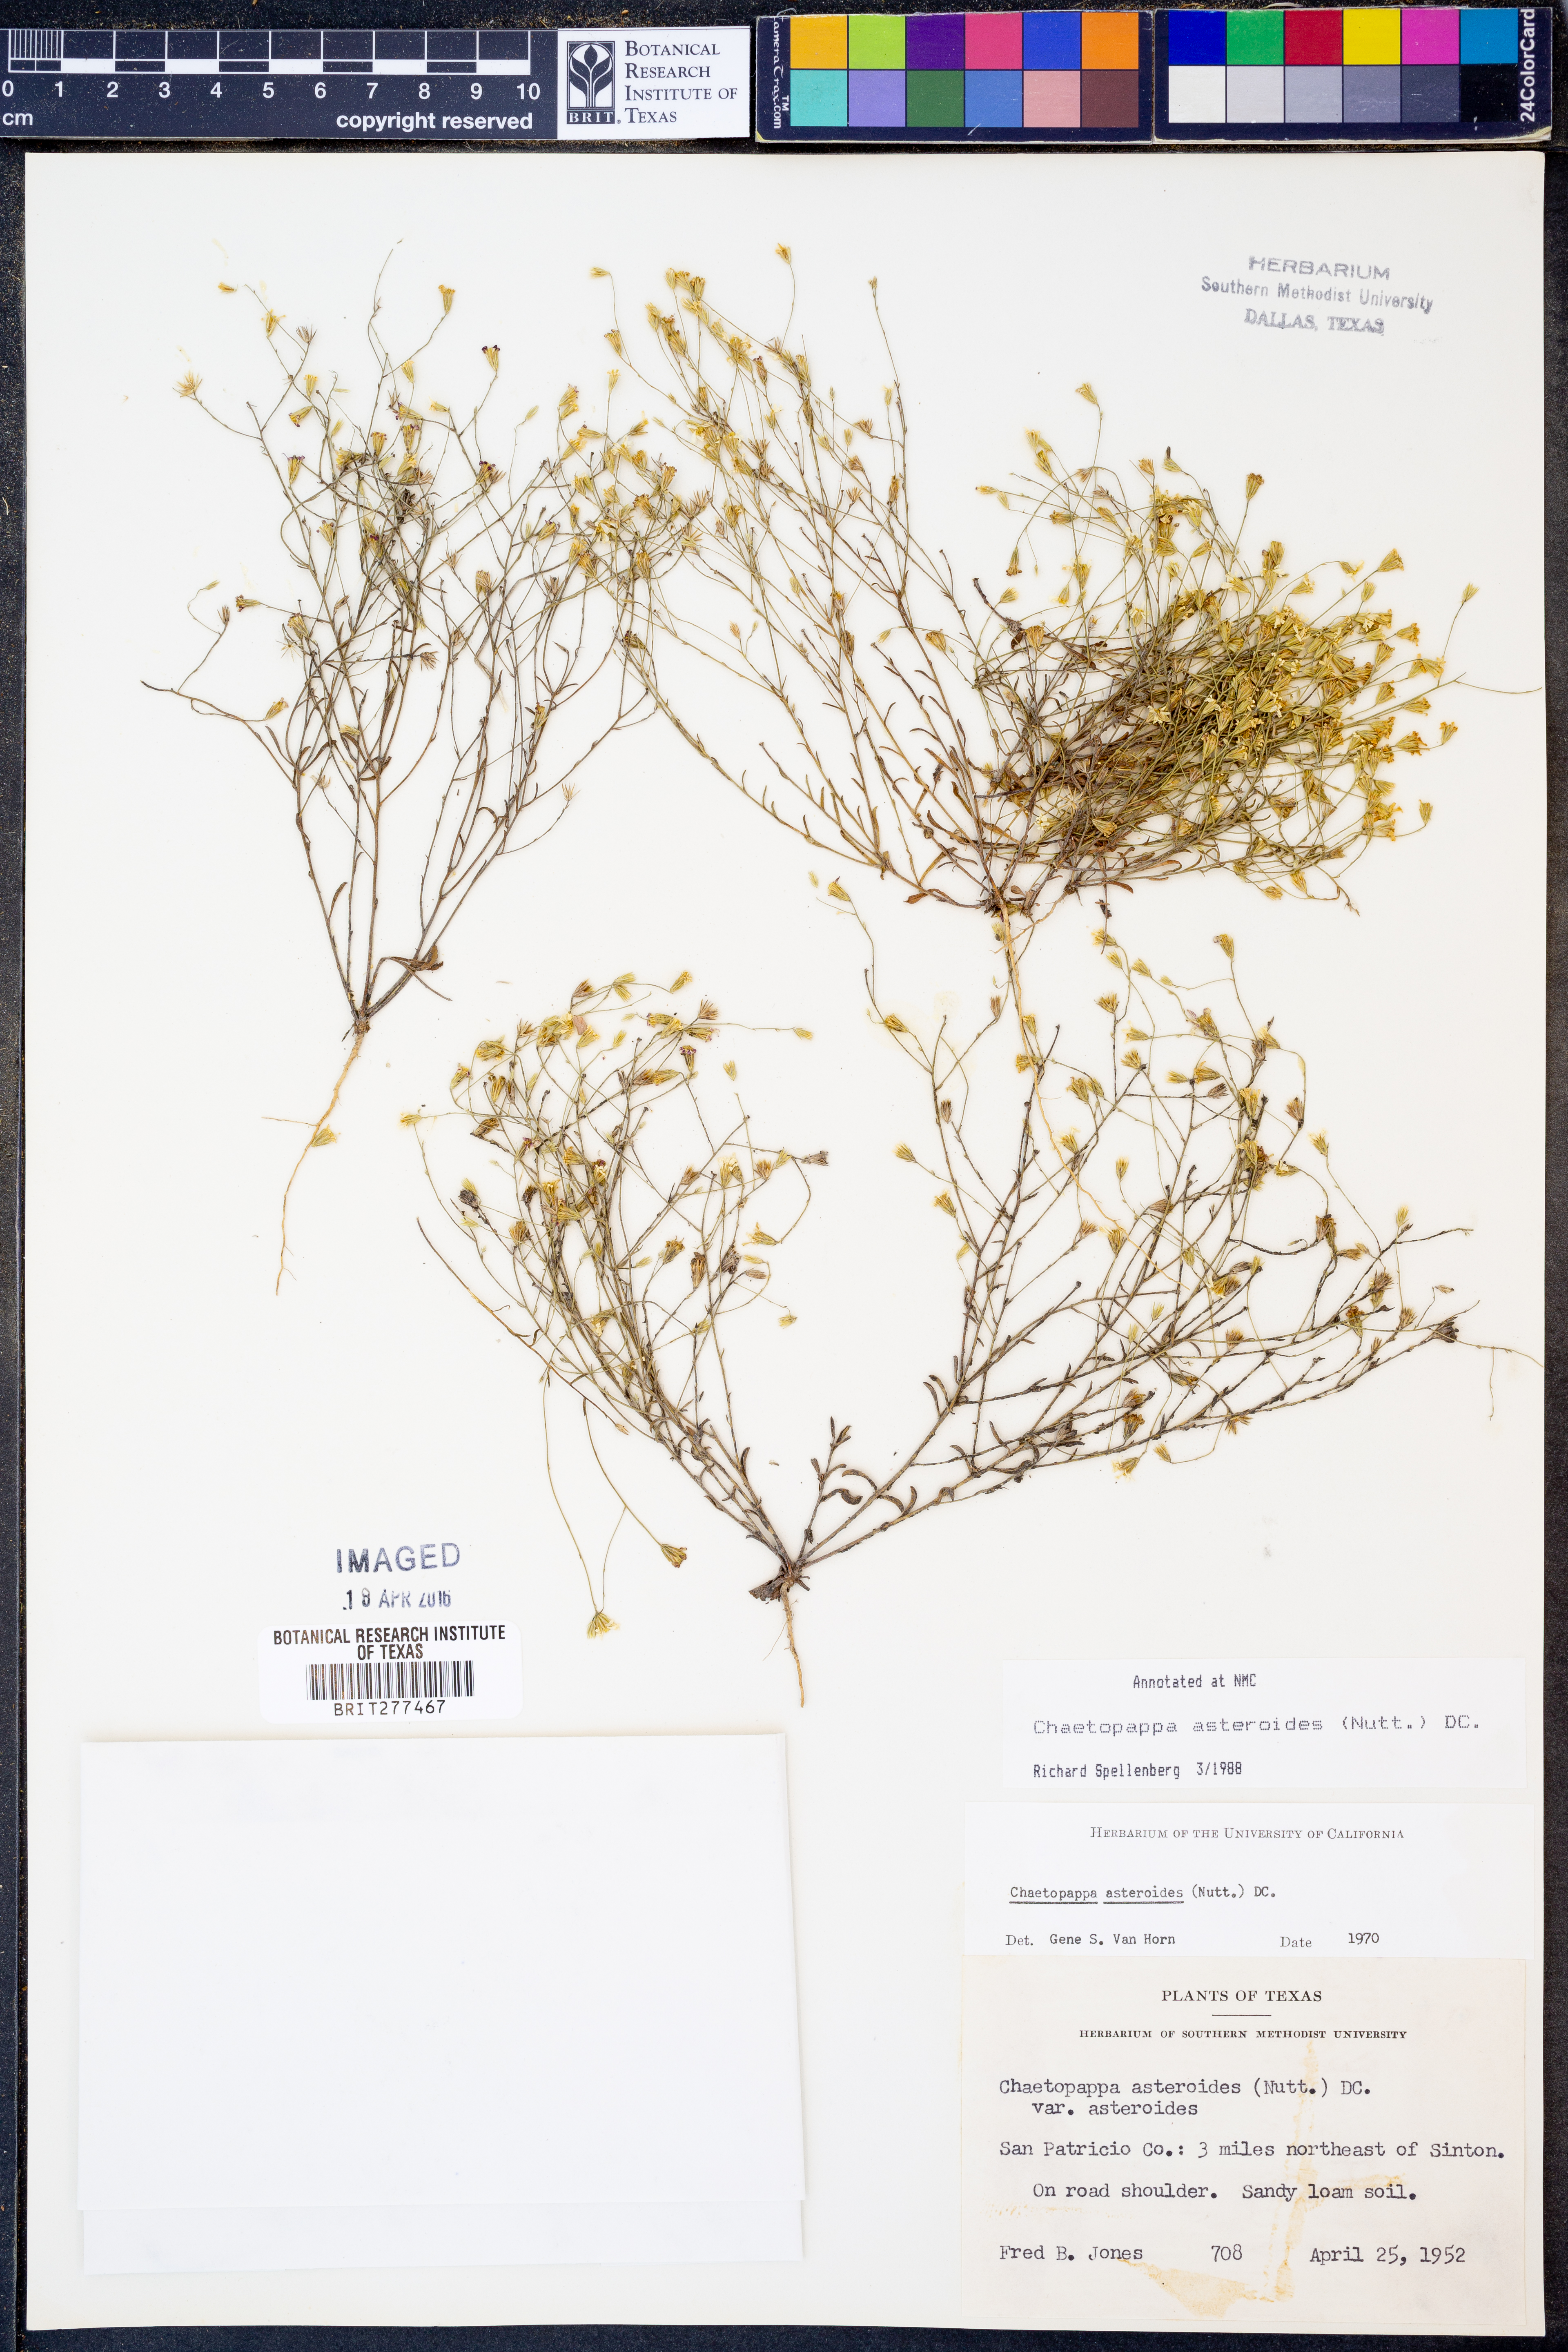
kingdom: Plantae
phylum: Tracheophyta
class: Magnoliopsida
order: Asterales
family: Asteraceae
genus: Chaetopappa
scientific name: Chaetopappa asteroides
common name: Tiny lazy daisy
